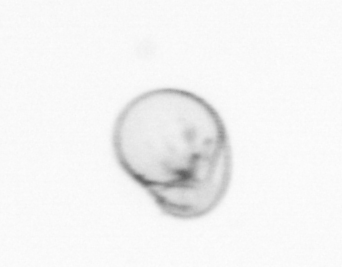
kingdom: Chromista
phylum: Myzozoa
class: Dinophyceae
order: Noctilucales
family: Noctilucaceae
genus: Noctiluca
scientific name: Noctiluca scintillans
